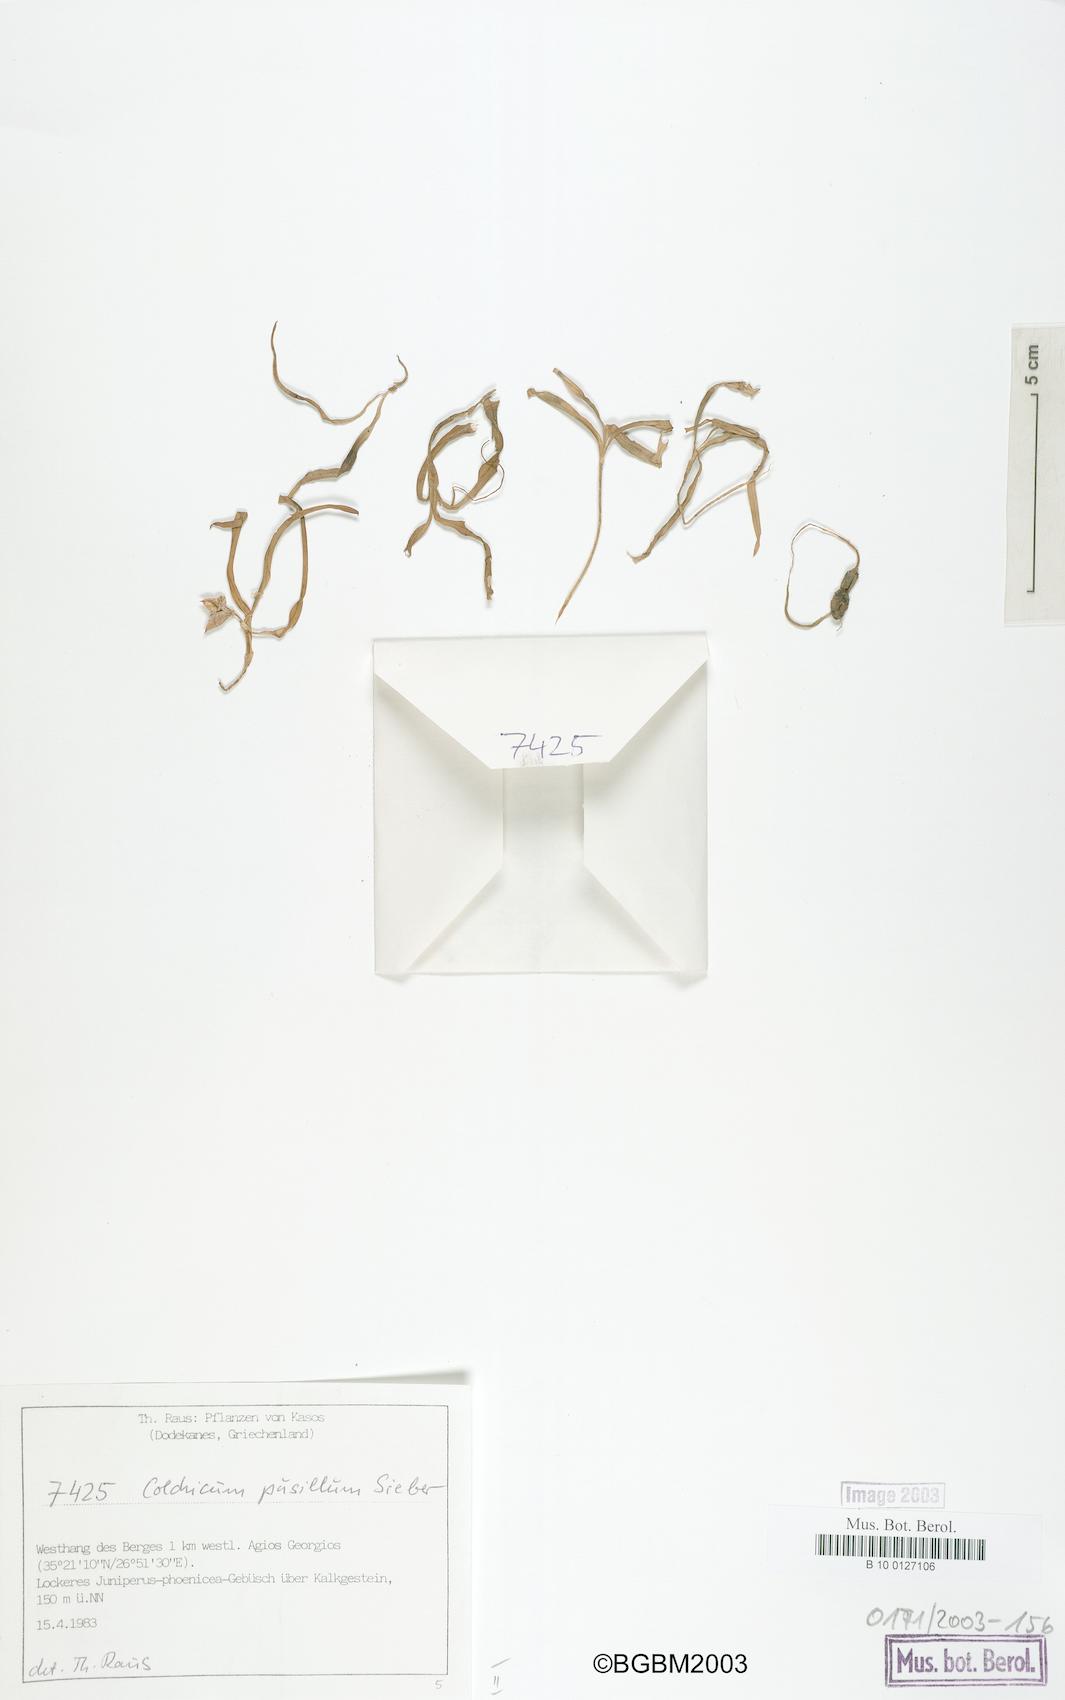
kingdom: Plantae
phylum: Tracheophyta
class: Liliopsida
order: Liliales
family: Colchicaceae
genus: Colchicum
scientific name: Colchicum pusillum
